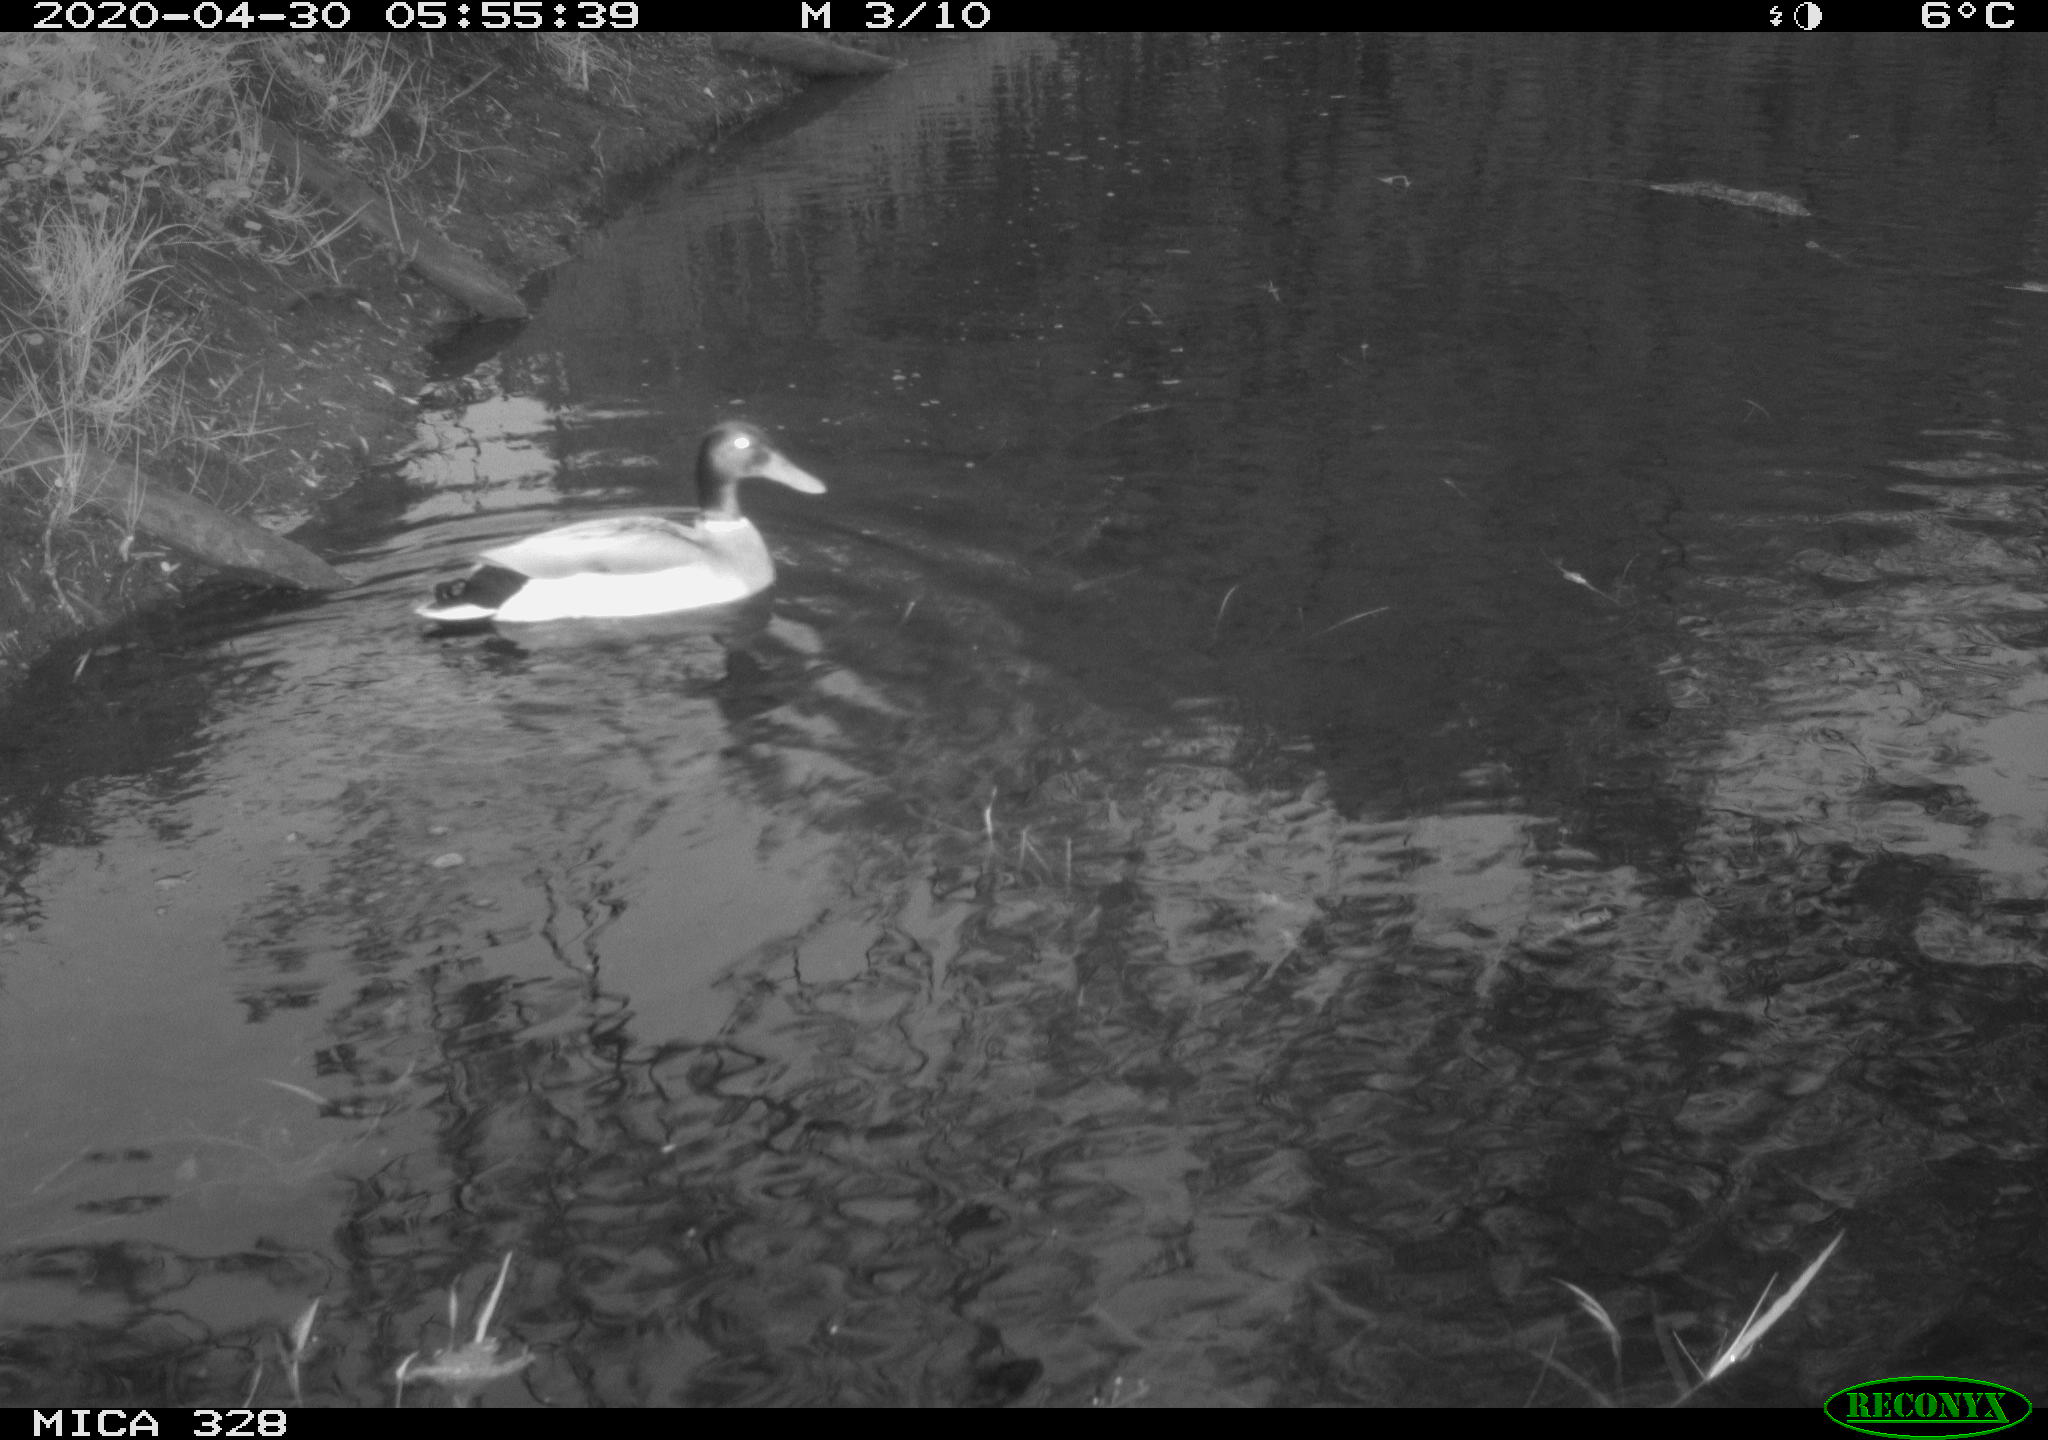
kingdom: Animalia
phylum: Chordata
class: Aves
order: Anseriformes
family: Anatidae
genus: Anas
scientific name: Anas platyrhynchos
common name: Mallard
